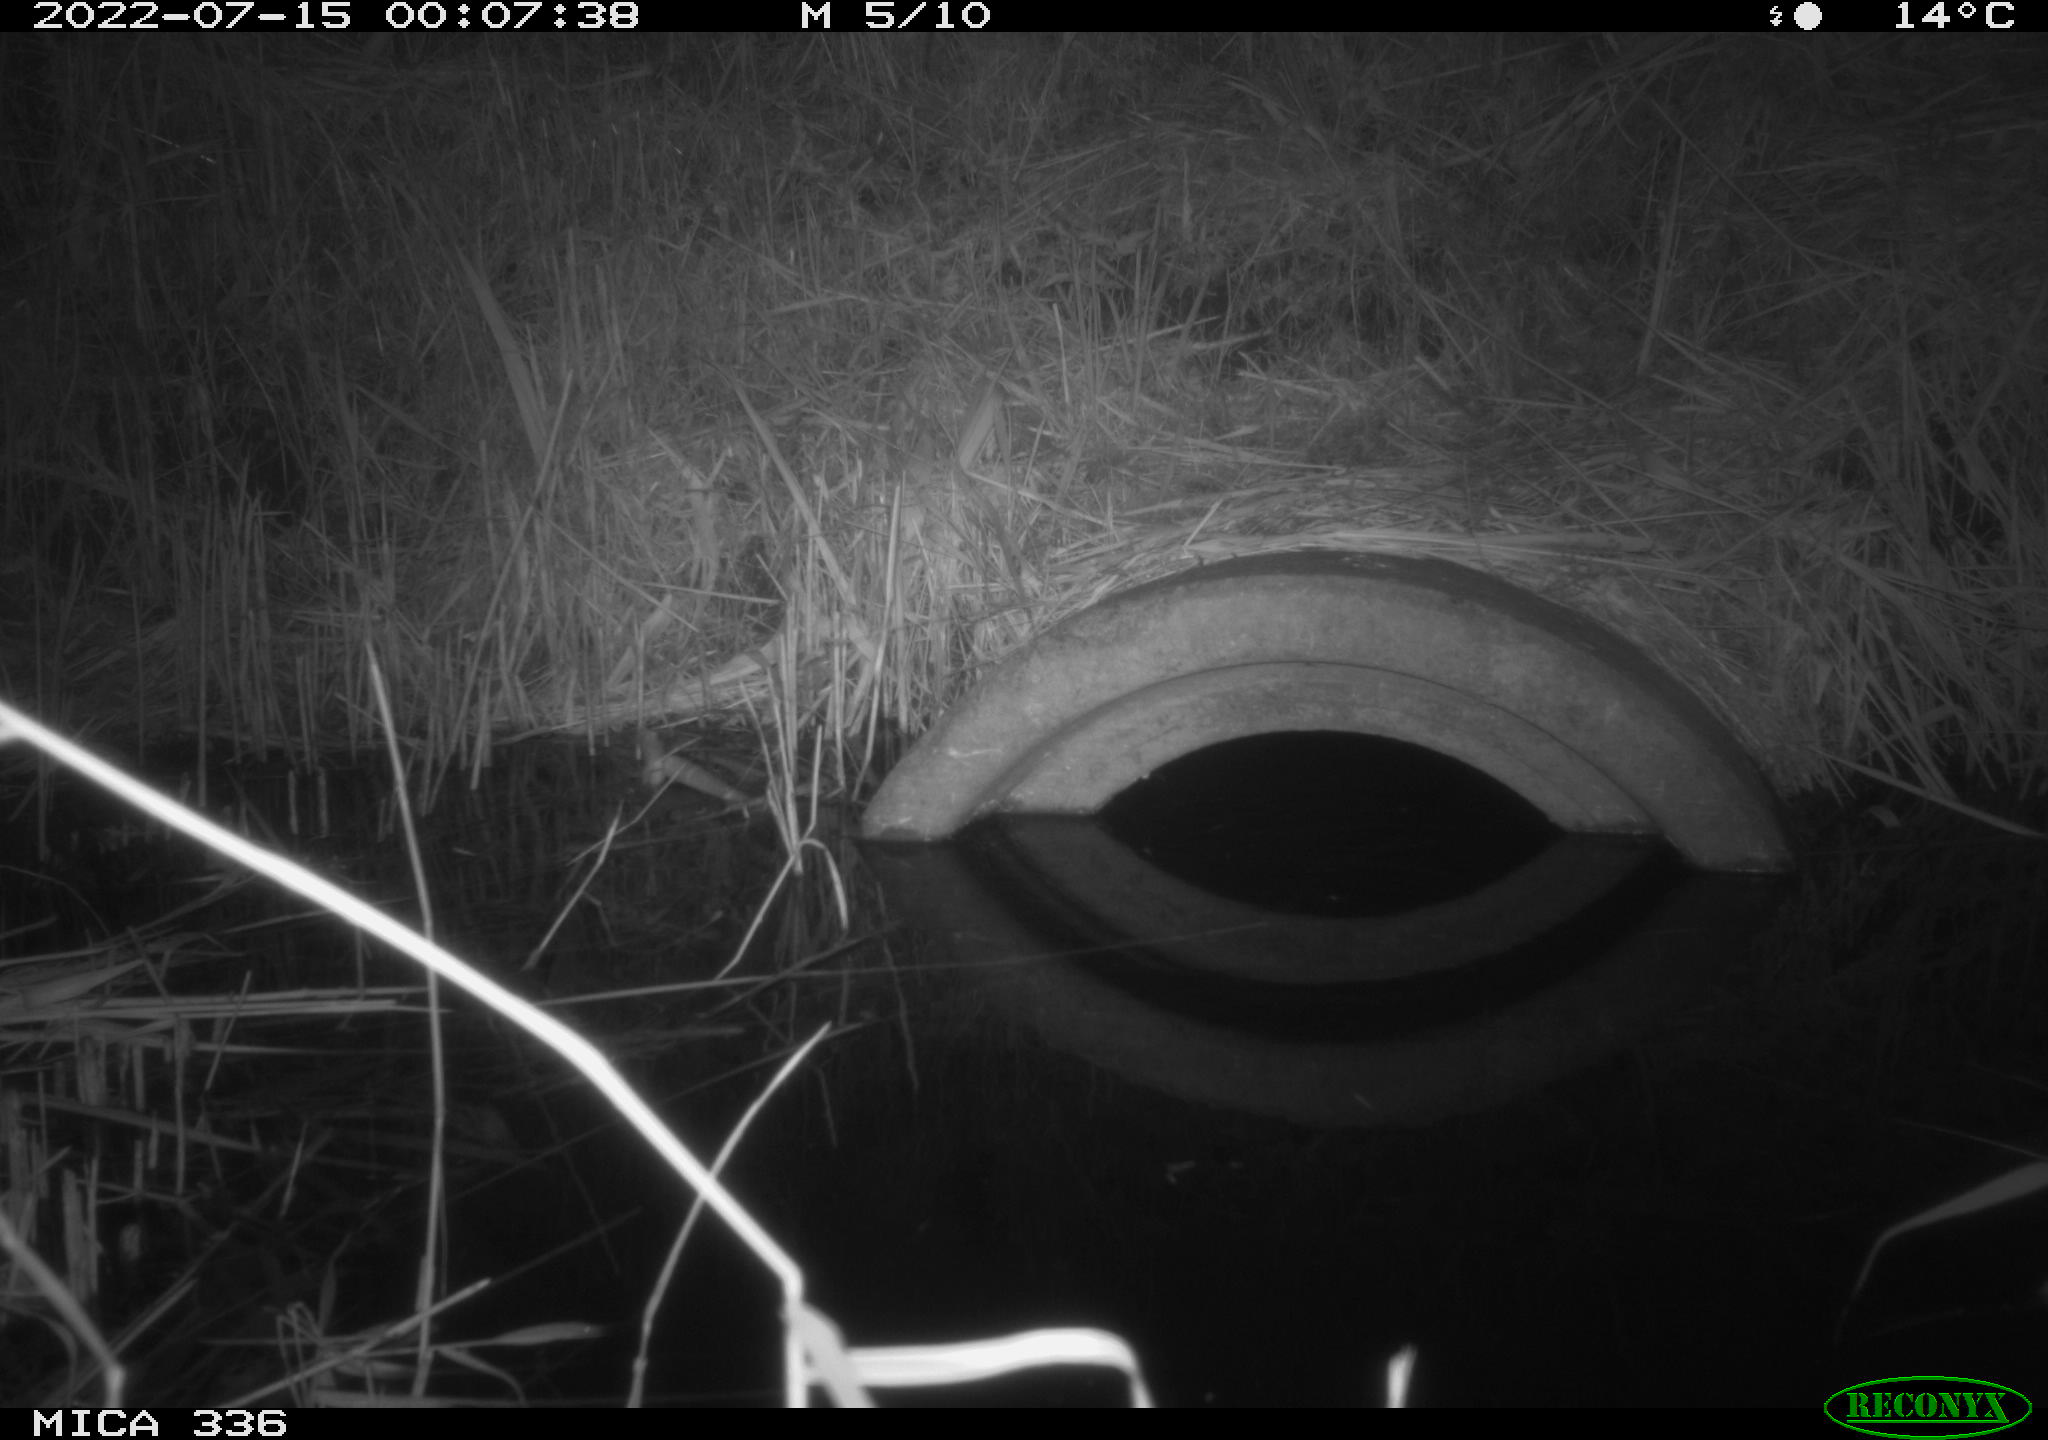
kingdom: Animalia
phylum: Chordata
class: Mammalia
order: Rodentia
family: Muridae
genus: Rattus
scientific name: Rattus norvegicus
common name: Brown rat
